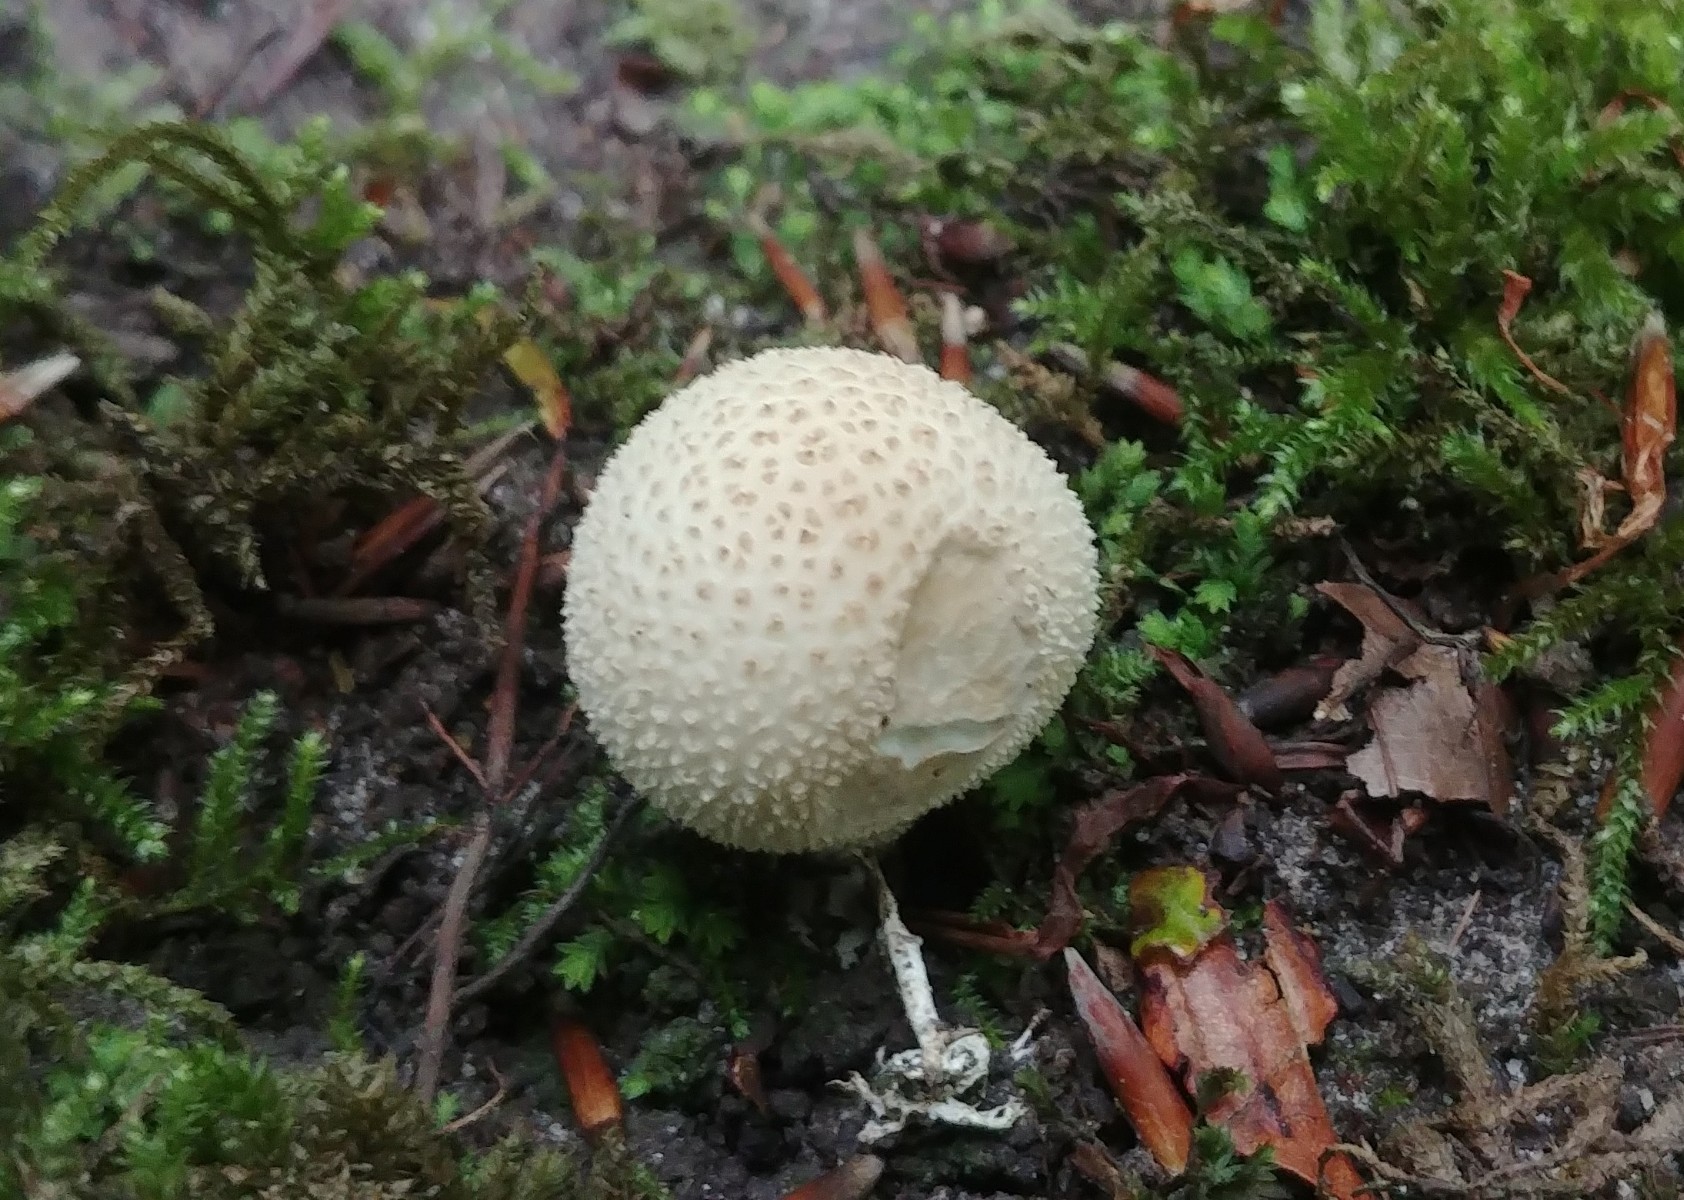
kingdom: Fungi
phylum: Basidiomycota
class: Agaricomycetes
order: Agaricales
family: Lycoperdaceae
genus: Lycoperdon
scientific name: Lycoperdon perlatum
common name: krystal-støvbold
